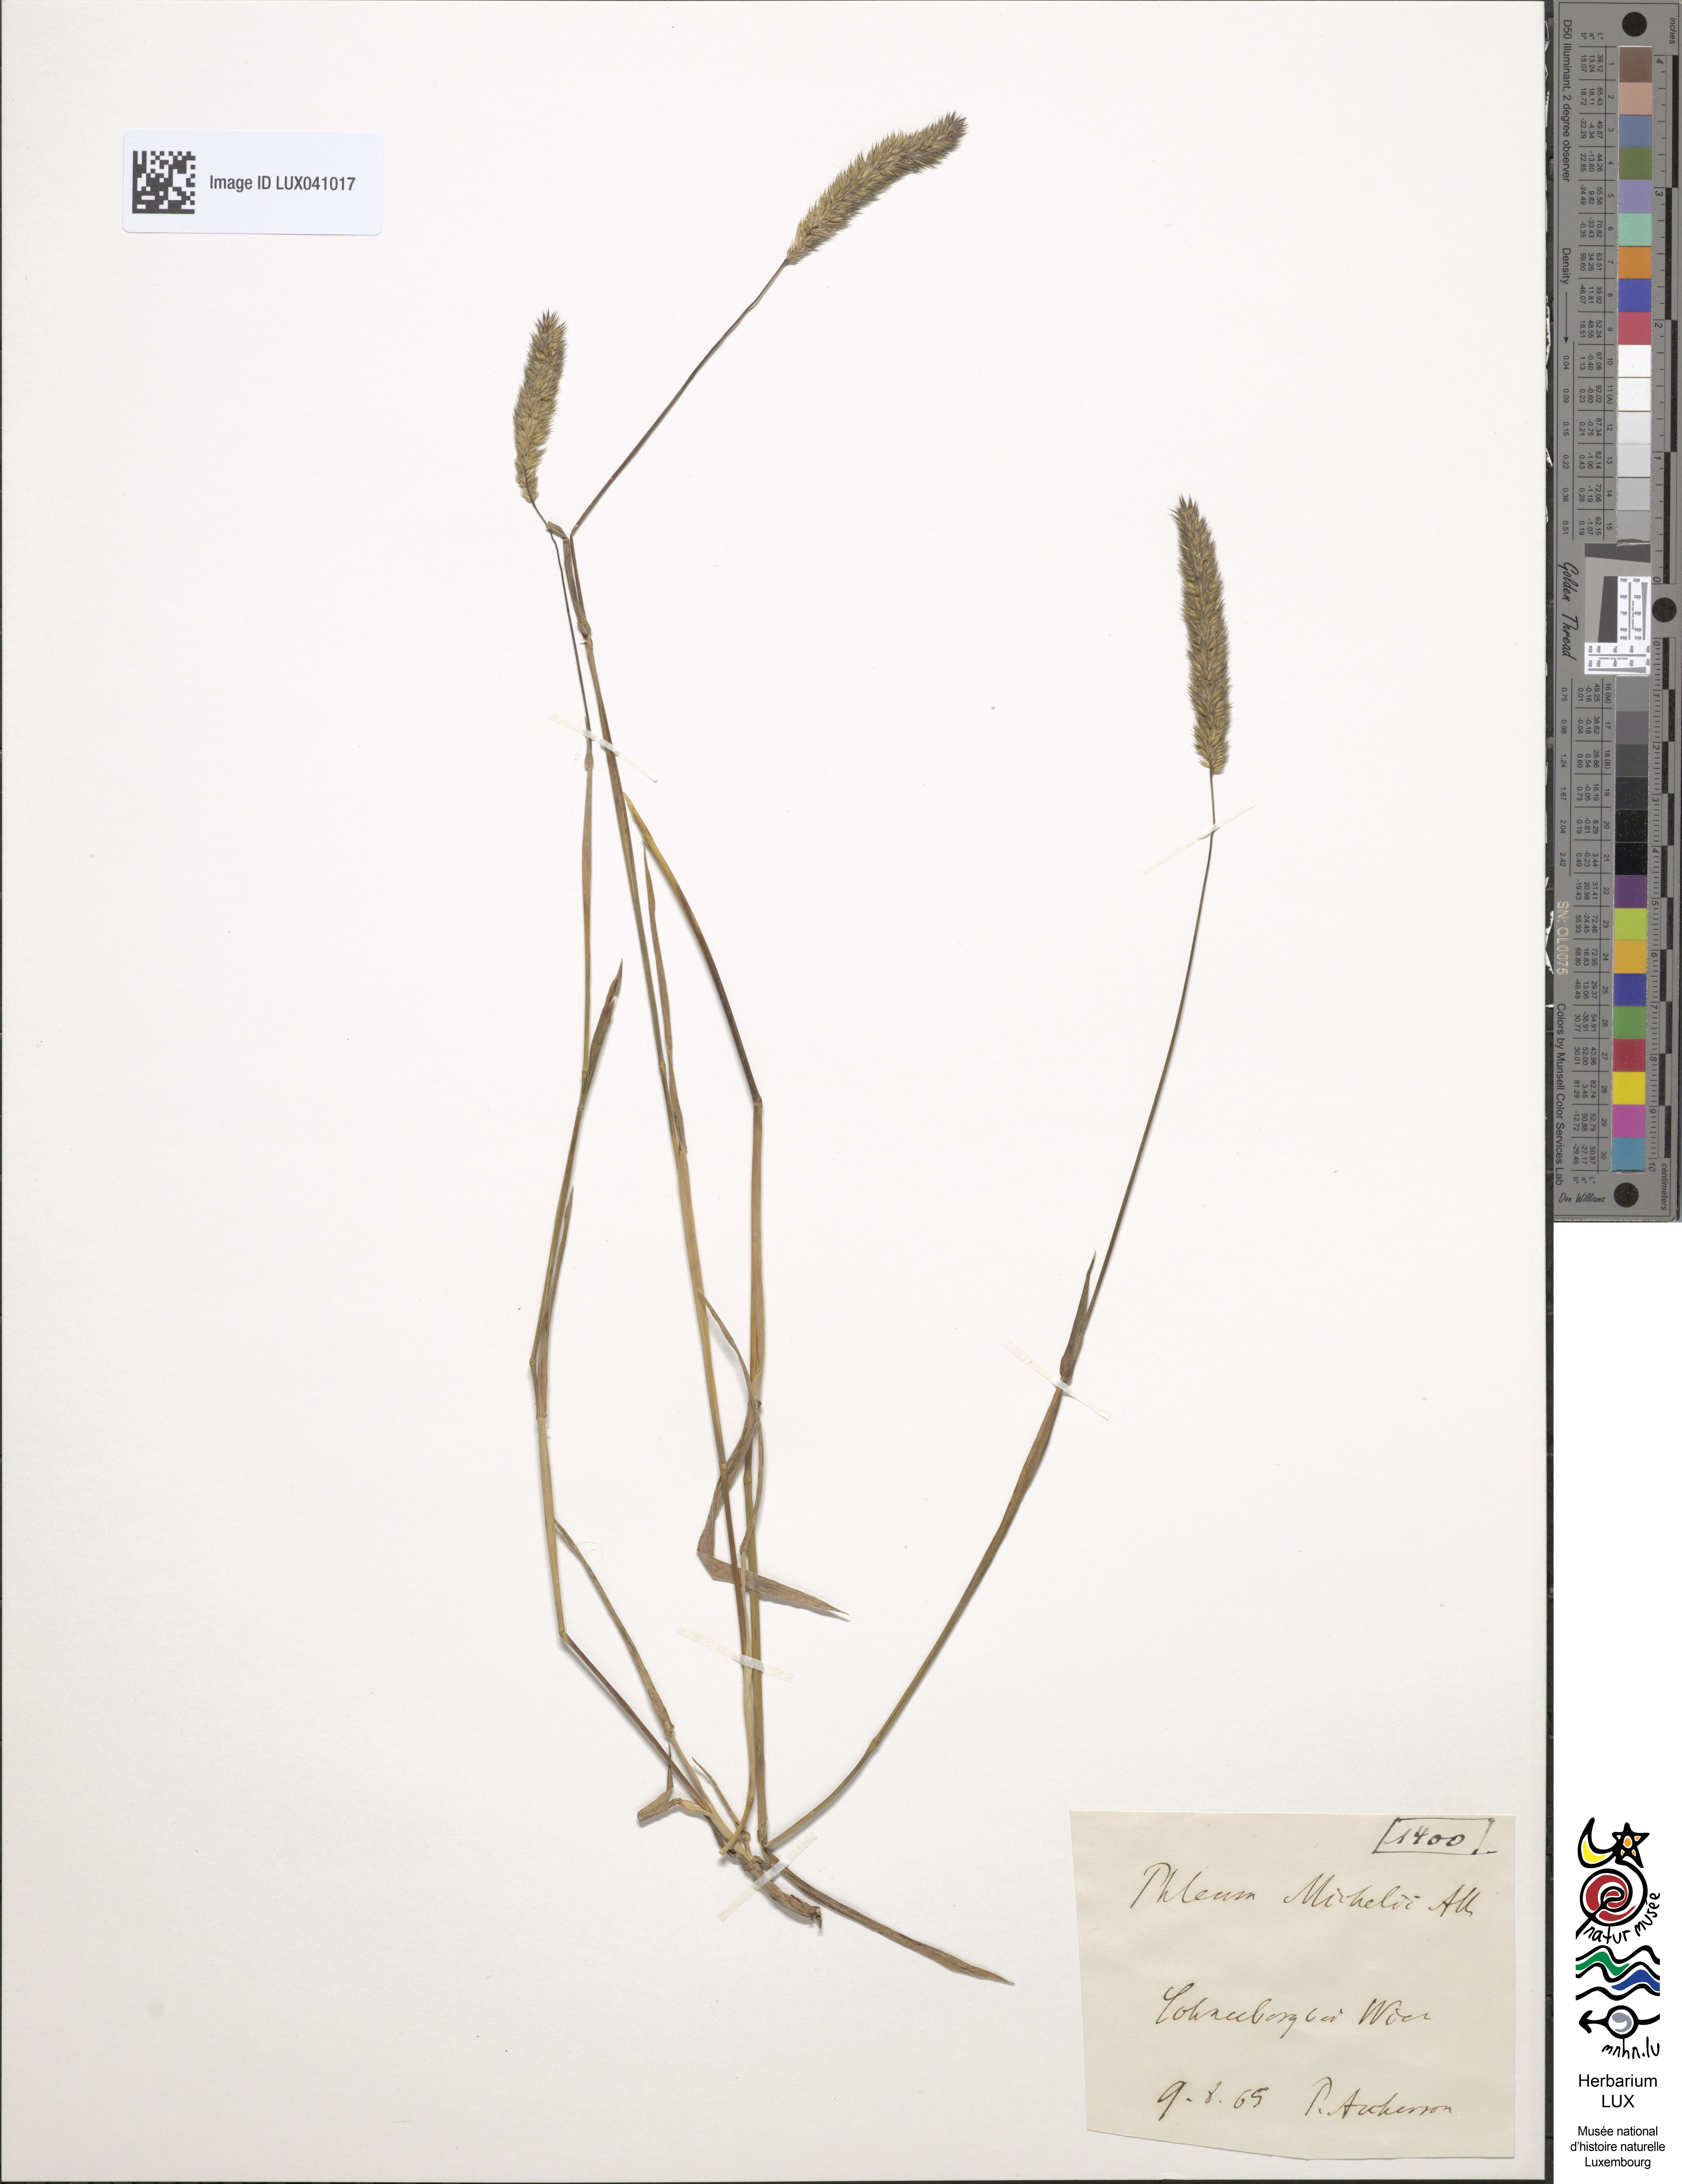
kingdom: Plantae
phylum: Tracheophyta
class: Liliopsida
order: Poales
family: Poaceae
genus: Phleum
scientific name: Phleum hirsutum
